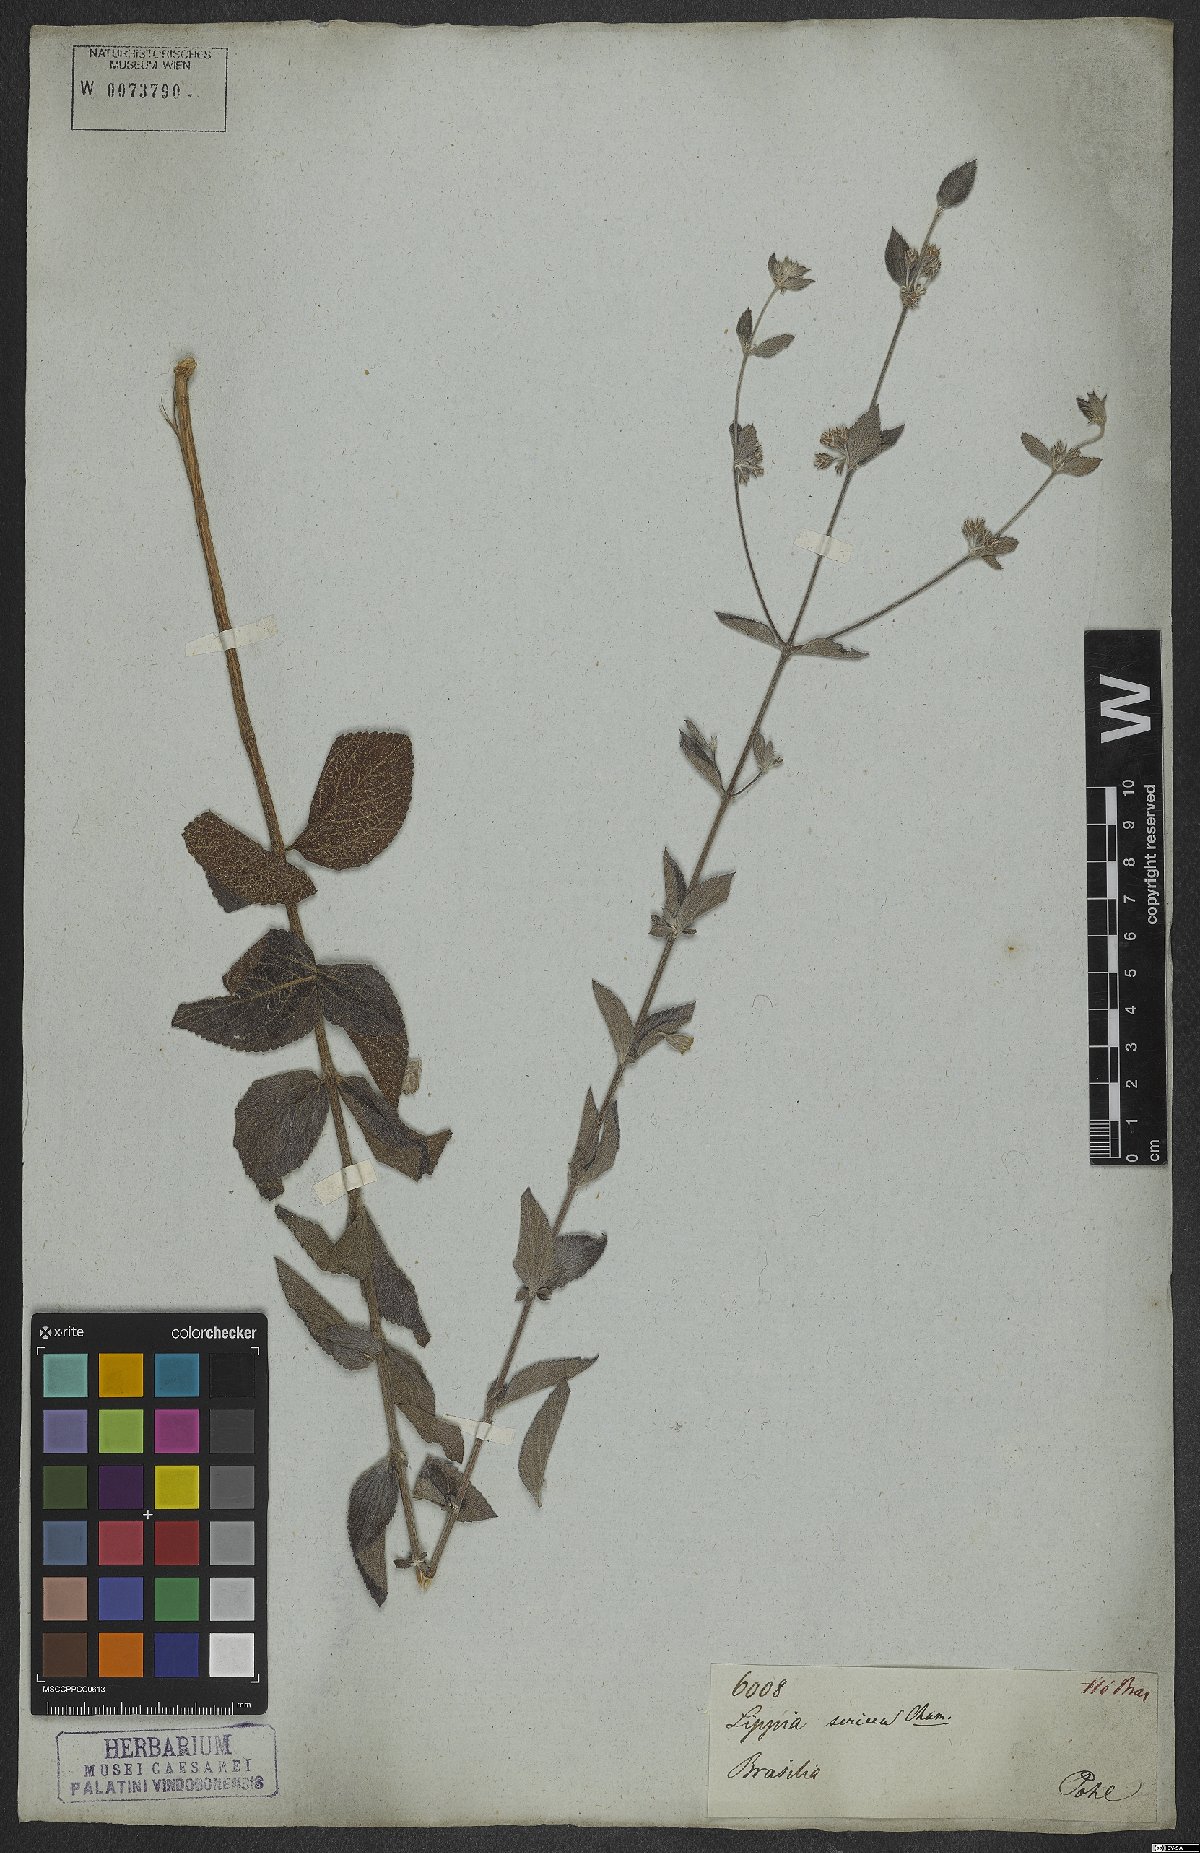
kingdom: Plantae
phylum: Tracheophyta
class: Magnoliopsida
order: Lamiales
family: Verbenaceae
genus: Lippia
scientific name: Lippia sericea
